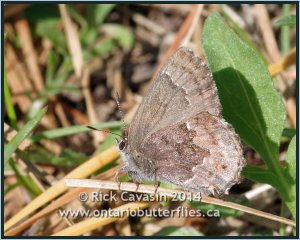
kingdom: Animalia
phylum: Arthropoda
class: Insecta
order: Lepidoptera
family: Lycaenidae
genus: Thecla
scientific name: Thecla irus
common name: Frosted Elfin
